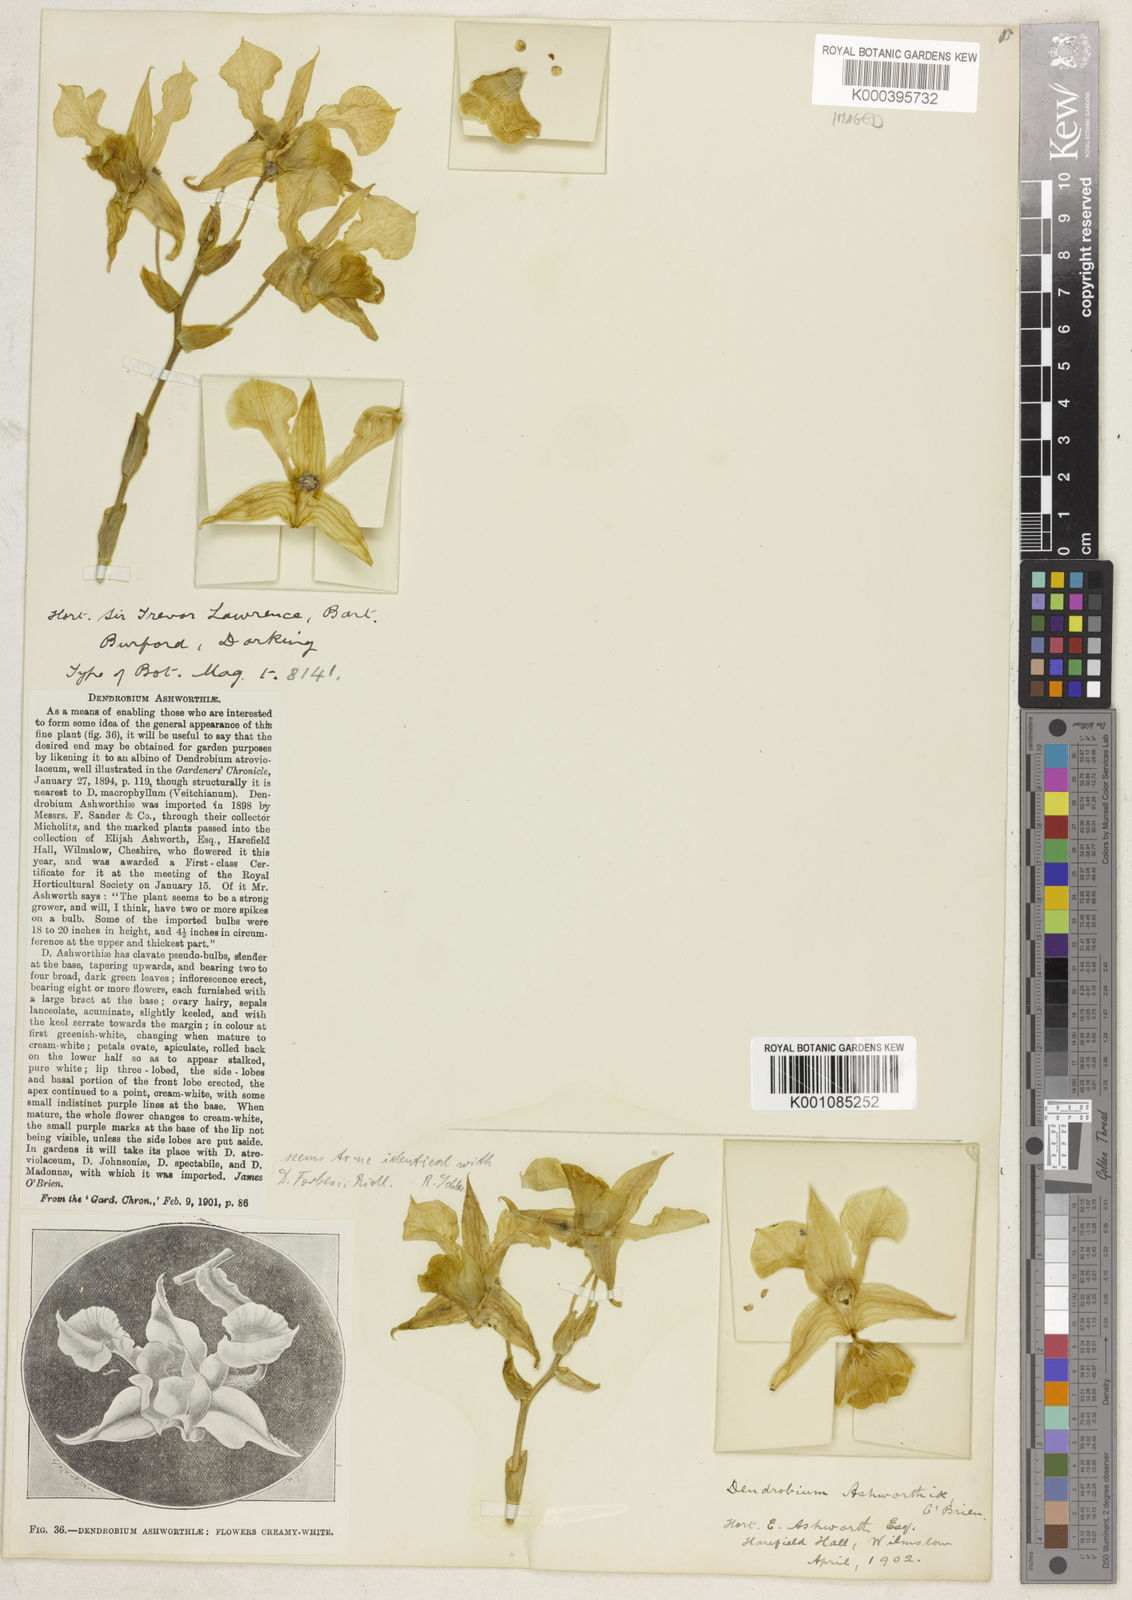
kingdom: Plantae
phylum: Tracheophyta
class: Liliopsida
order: Asparagales
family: Orchidaceae
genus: Dendrobium
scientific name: Dendrobium forbesii
